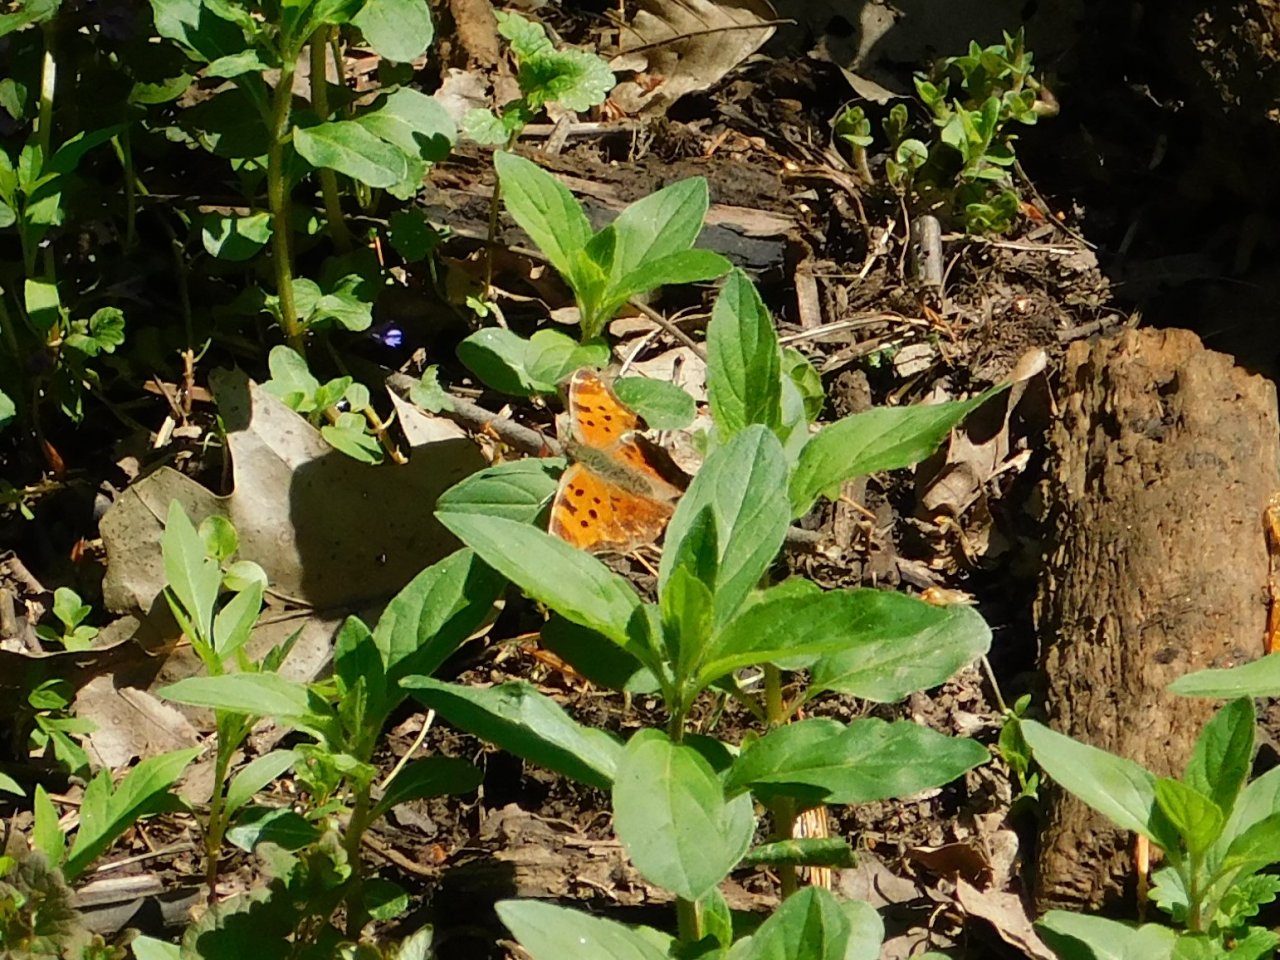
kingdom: Animalia
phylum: Arthropoda
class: Insecta
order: Lepidoptera
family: Nymphalidae
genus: Polygonia
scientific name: Polygonia progne
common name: Gray Comma
